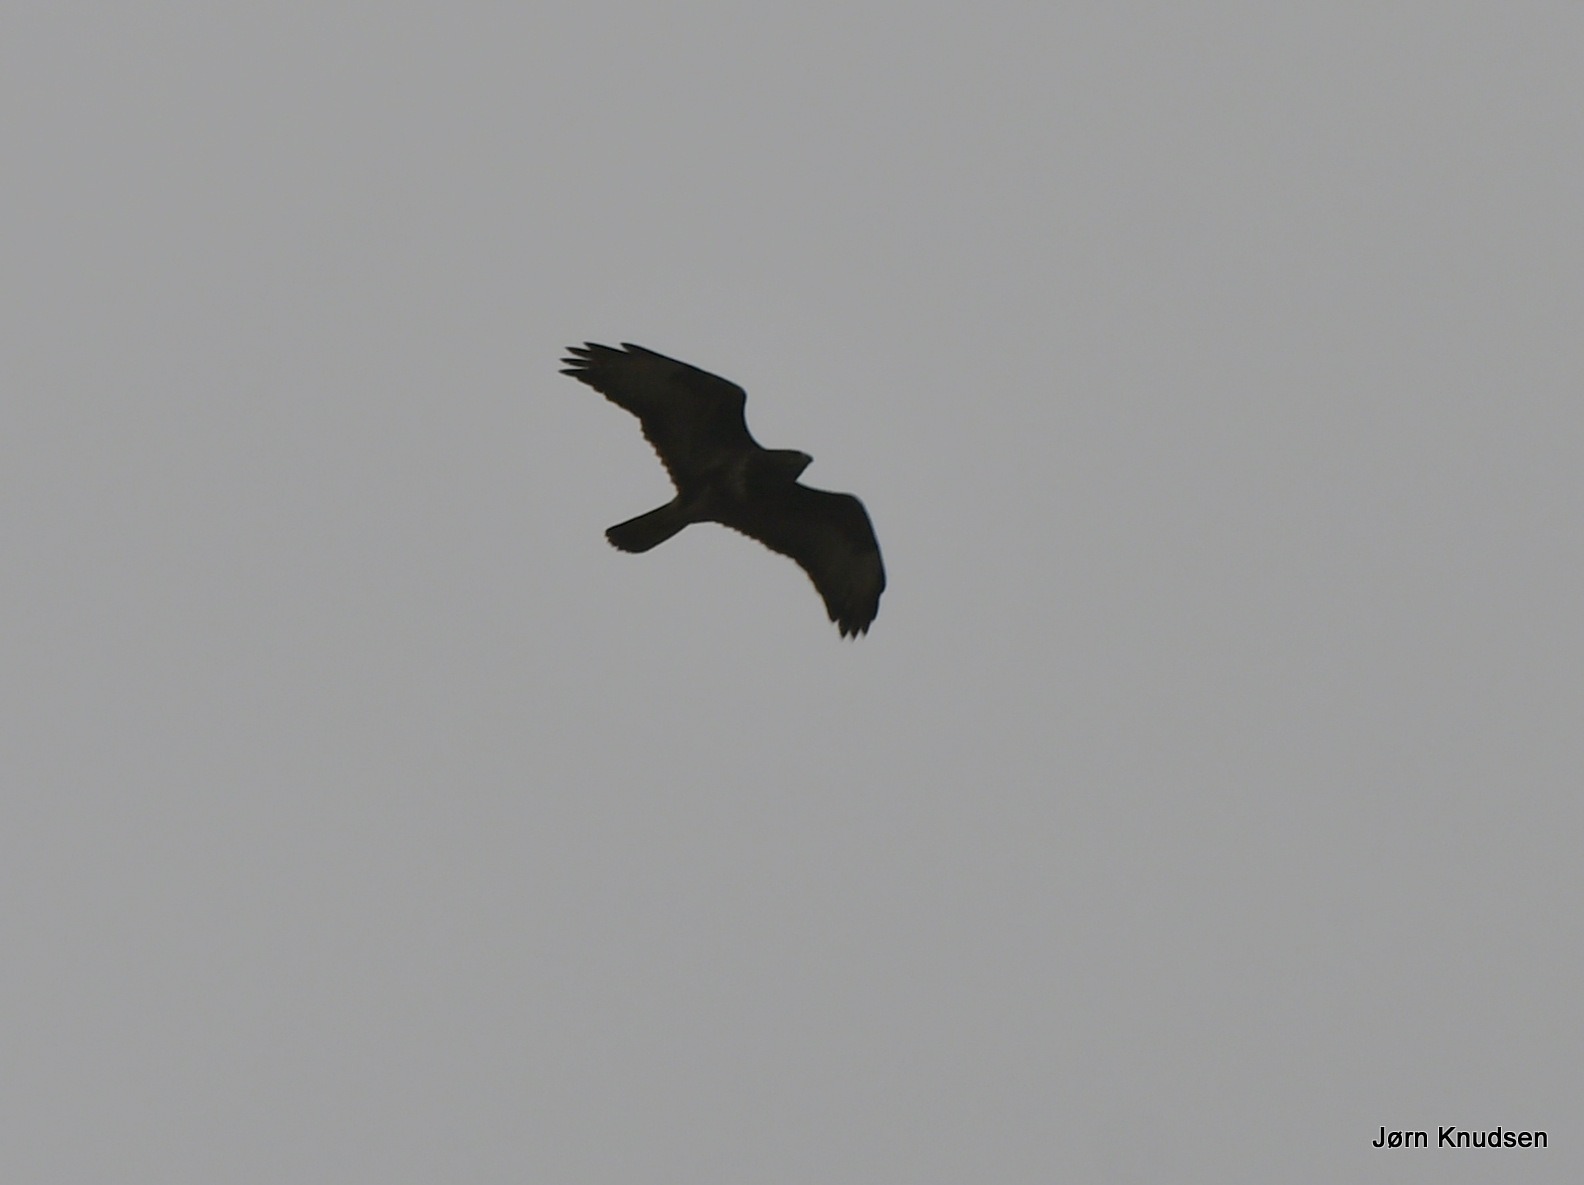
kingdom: Animalia
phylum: Chordata
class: Aves
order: Accipitriformes
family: Accipitridae
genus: Buteo
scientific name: Buteo buteo
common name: Musvåge
